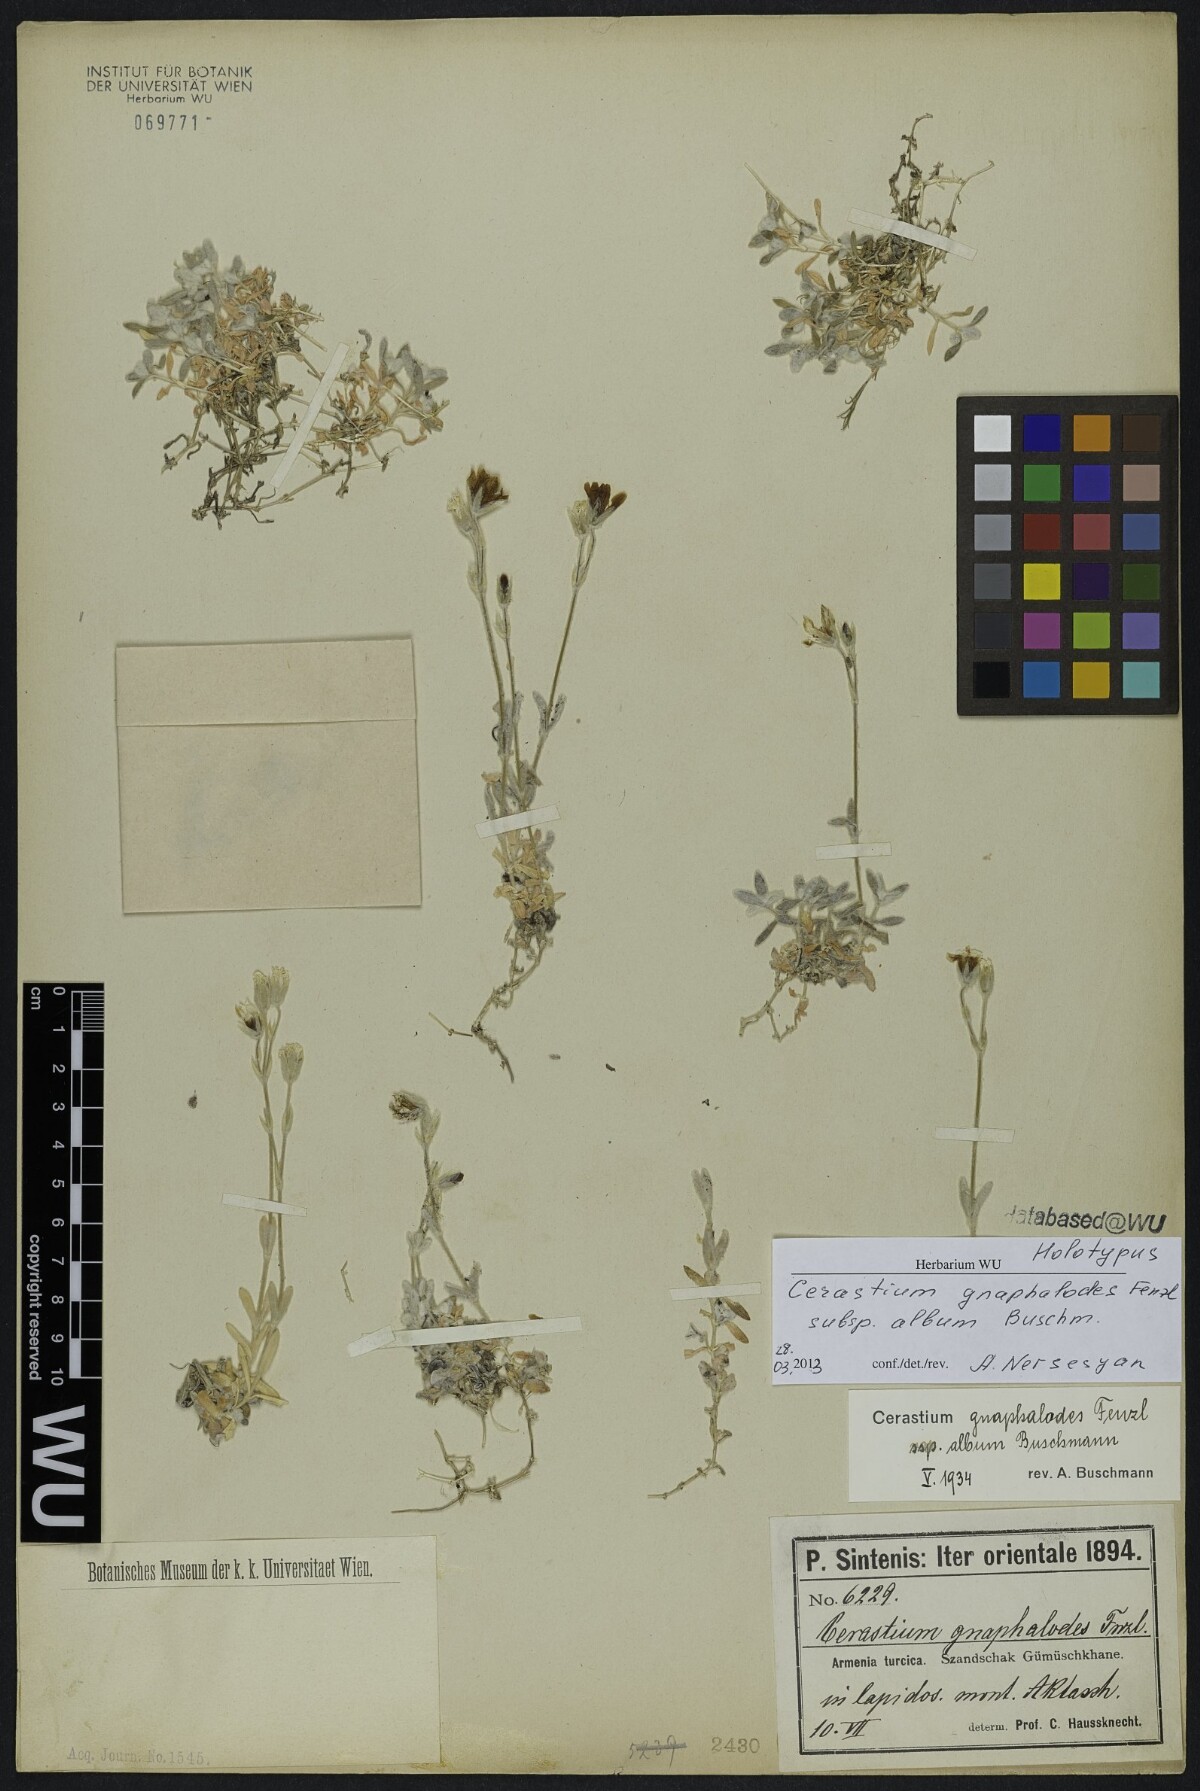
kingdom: Plantae
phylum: Tracheophyta
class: Magnoliopsida
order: Caryophyllales
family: Caryophyllaceae
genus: Cerastium
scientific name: Cerastium szowitsii
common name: Szowitz's chickweed
